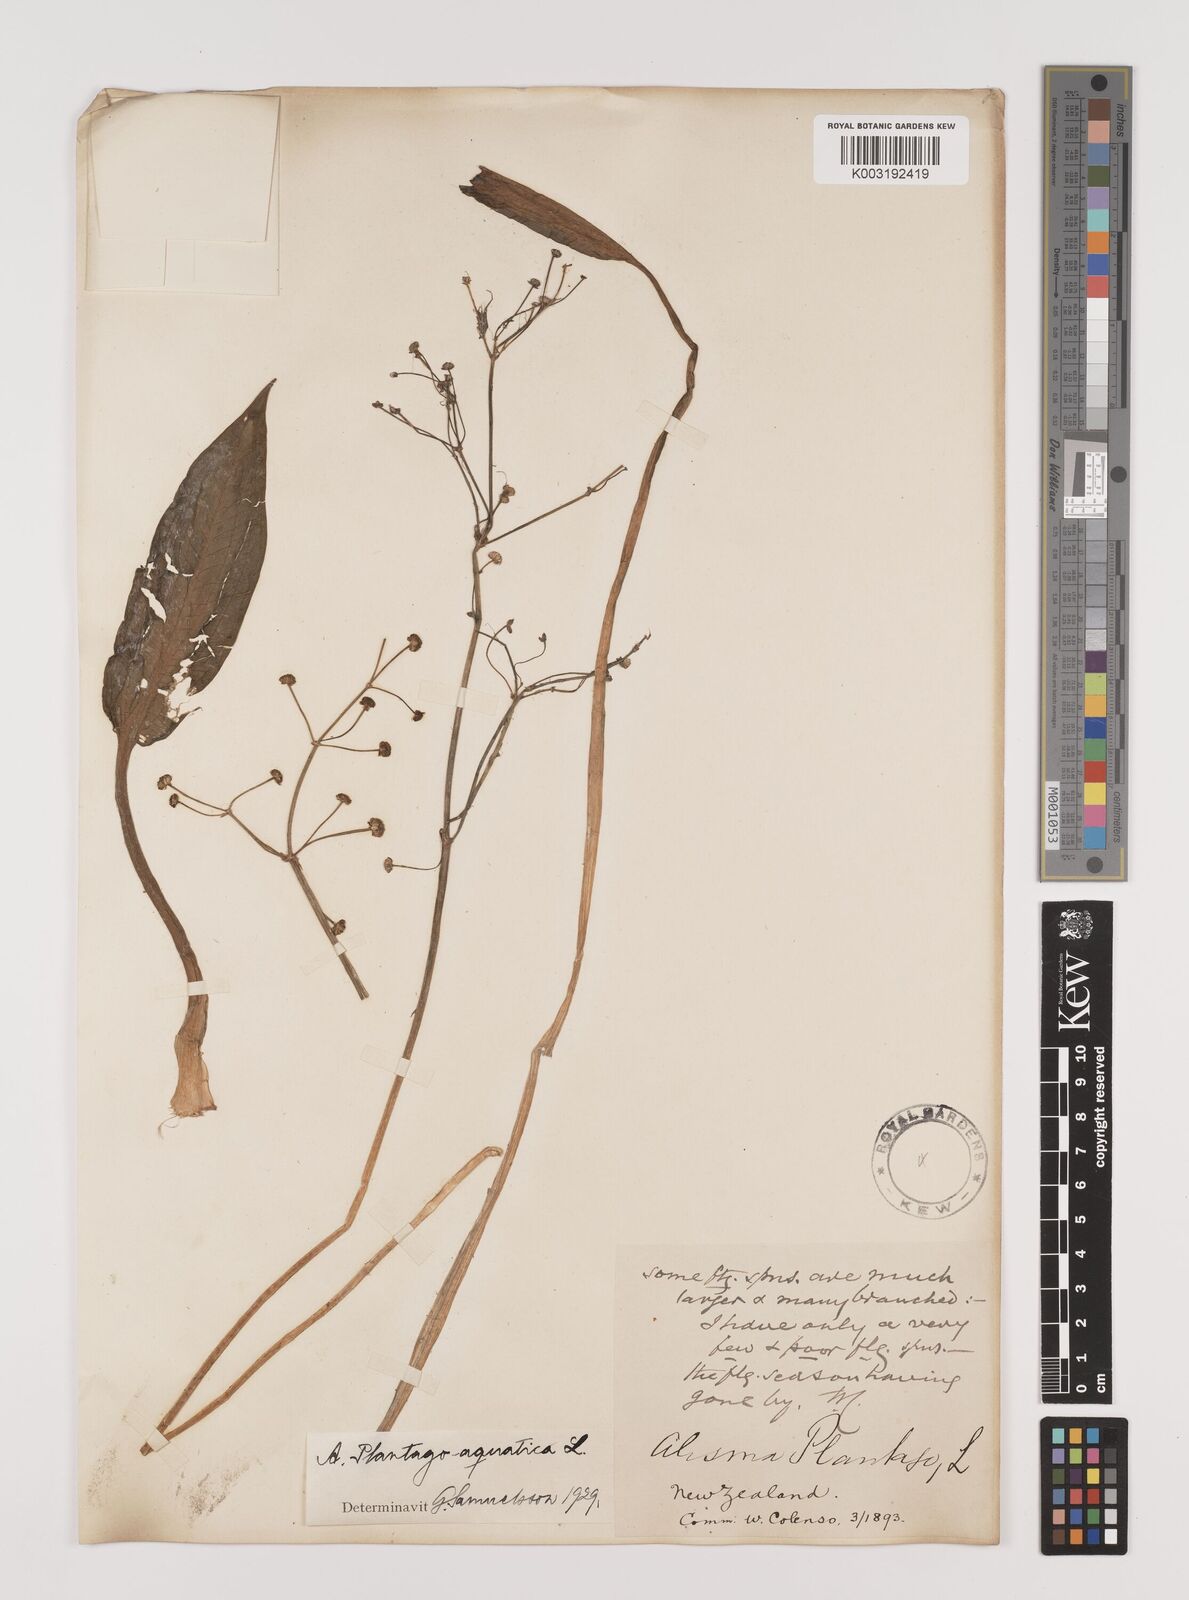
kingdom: Plantae
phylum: Tracheophyta
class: Liliopsida
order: Alismatales
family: Alismataceae
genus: Alisma
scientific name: Alisma plantago-aquatica
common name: Water-plantain
